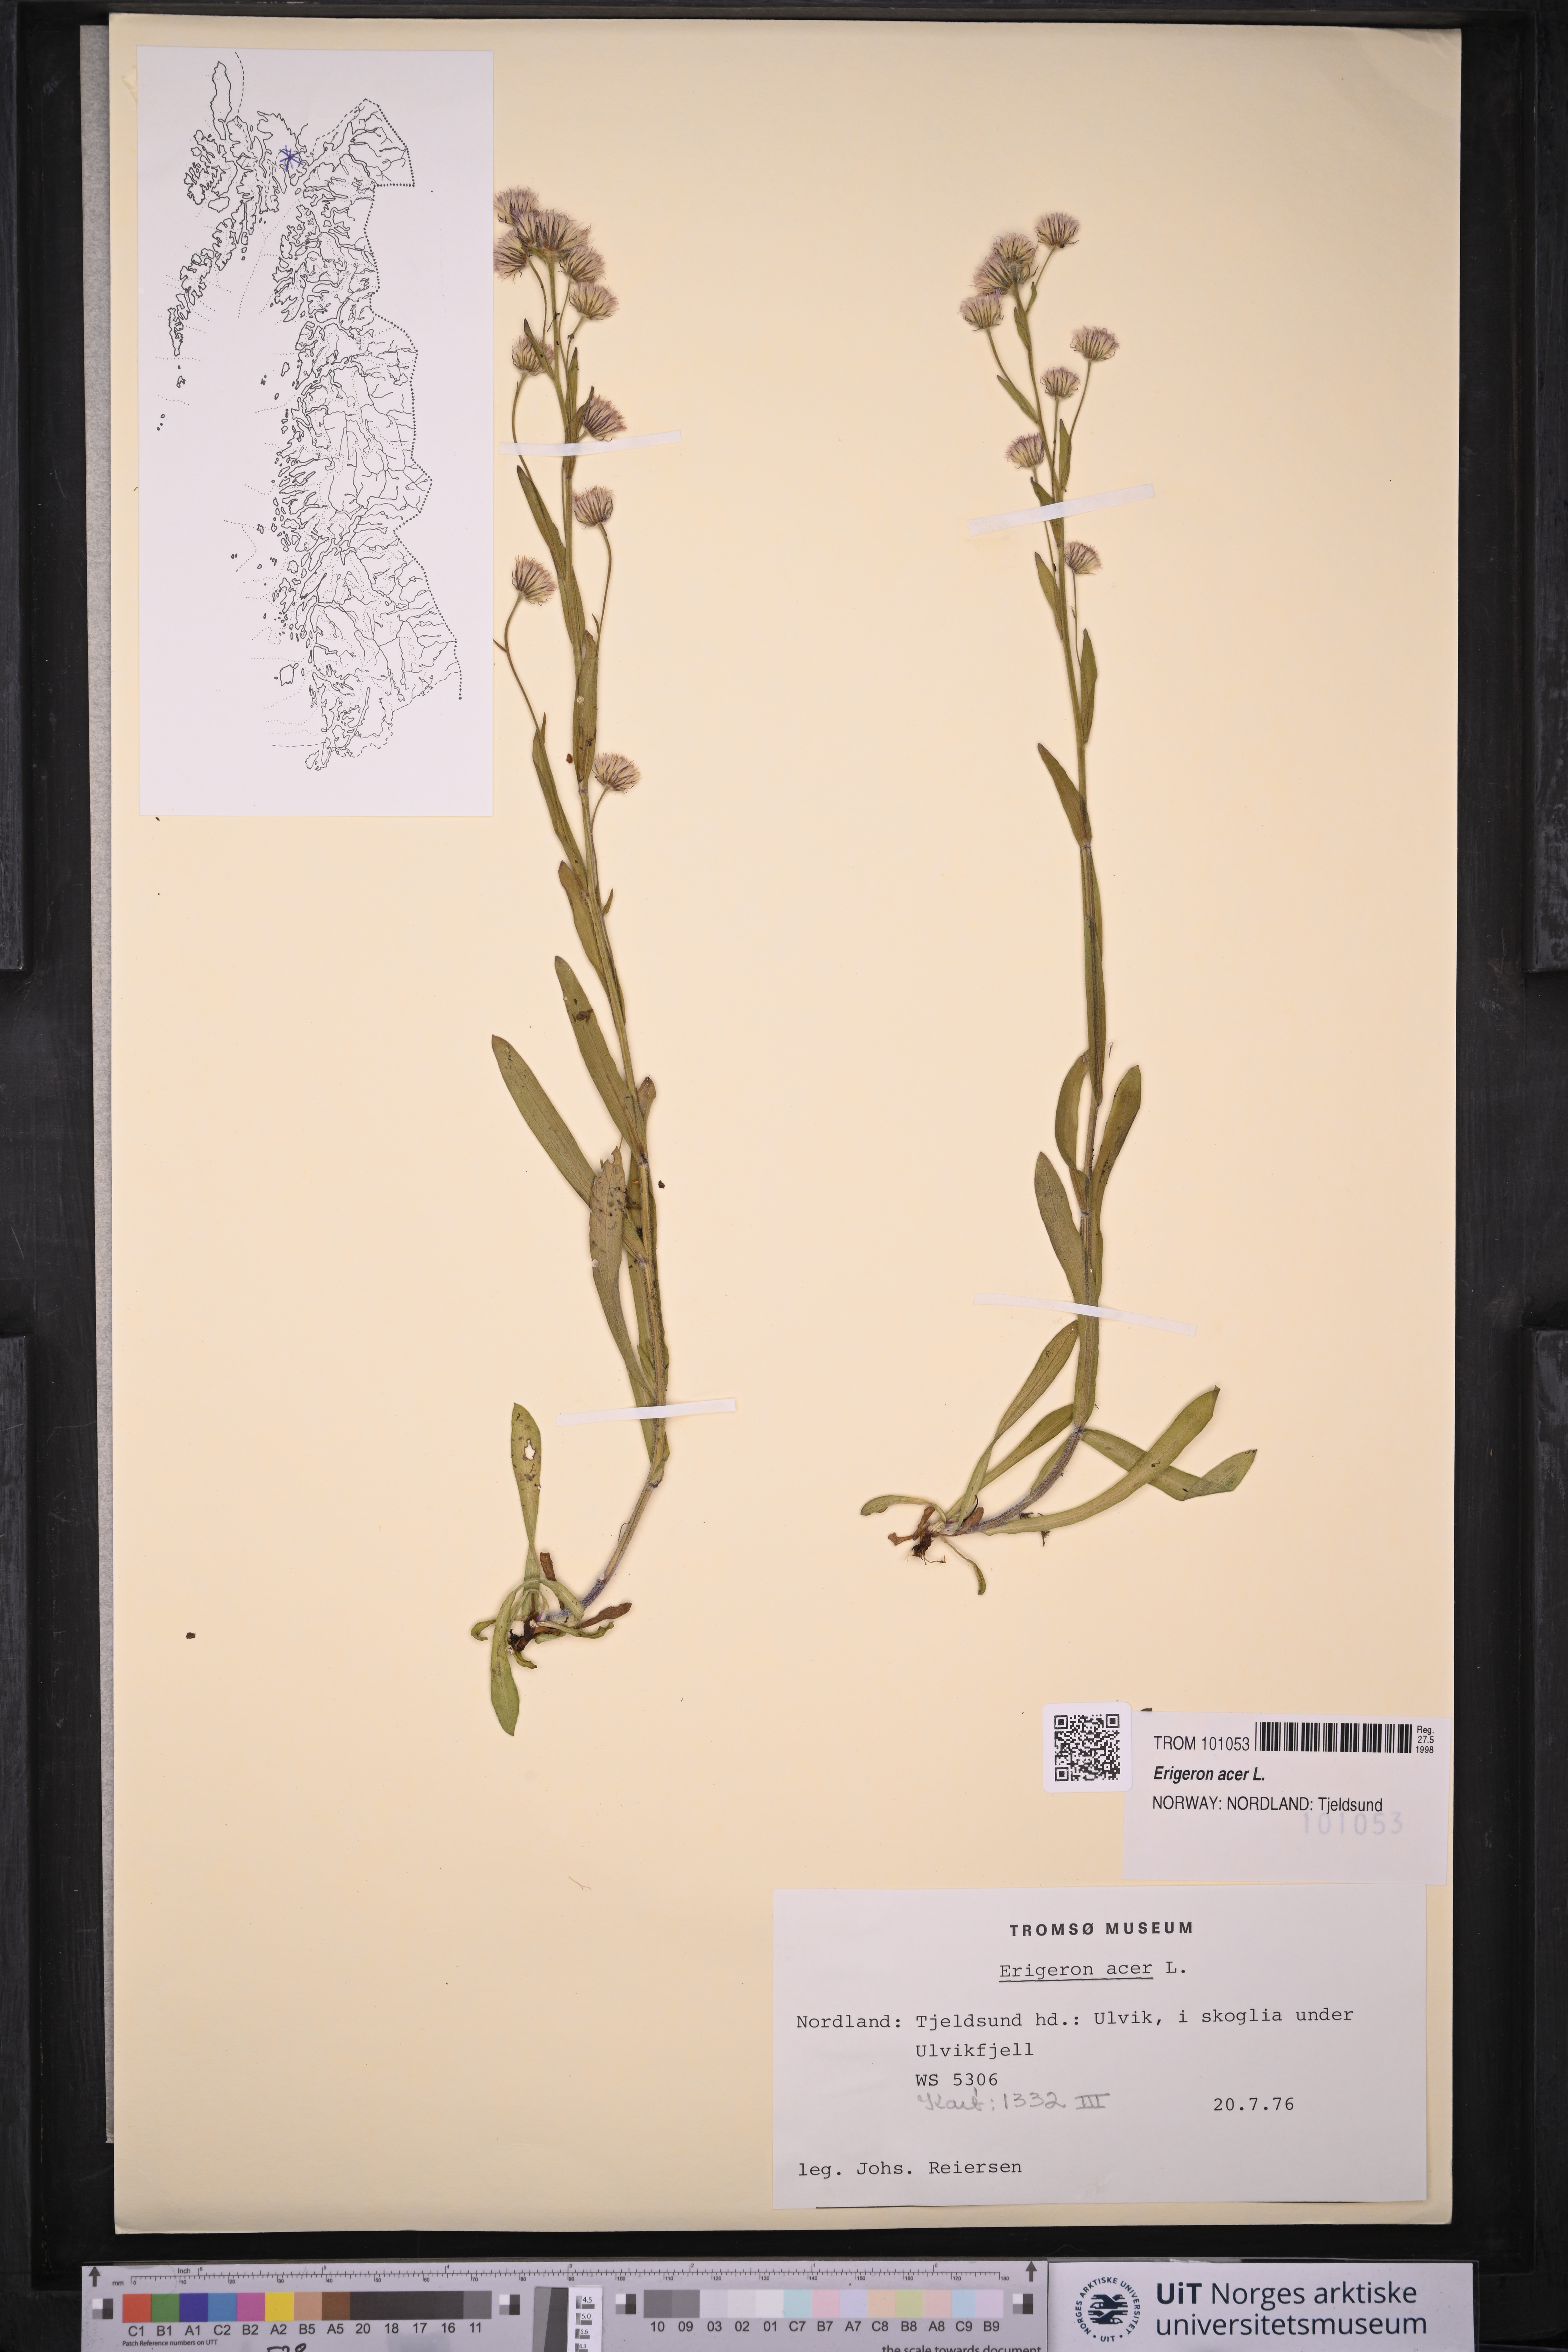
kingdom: Plantae
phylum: Tracheophyta
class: Magnoliopsida
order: Asterales
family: Asteraceae
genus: Erigeron
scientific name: Erigeron acris
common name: Blue fleabane
